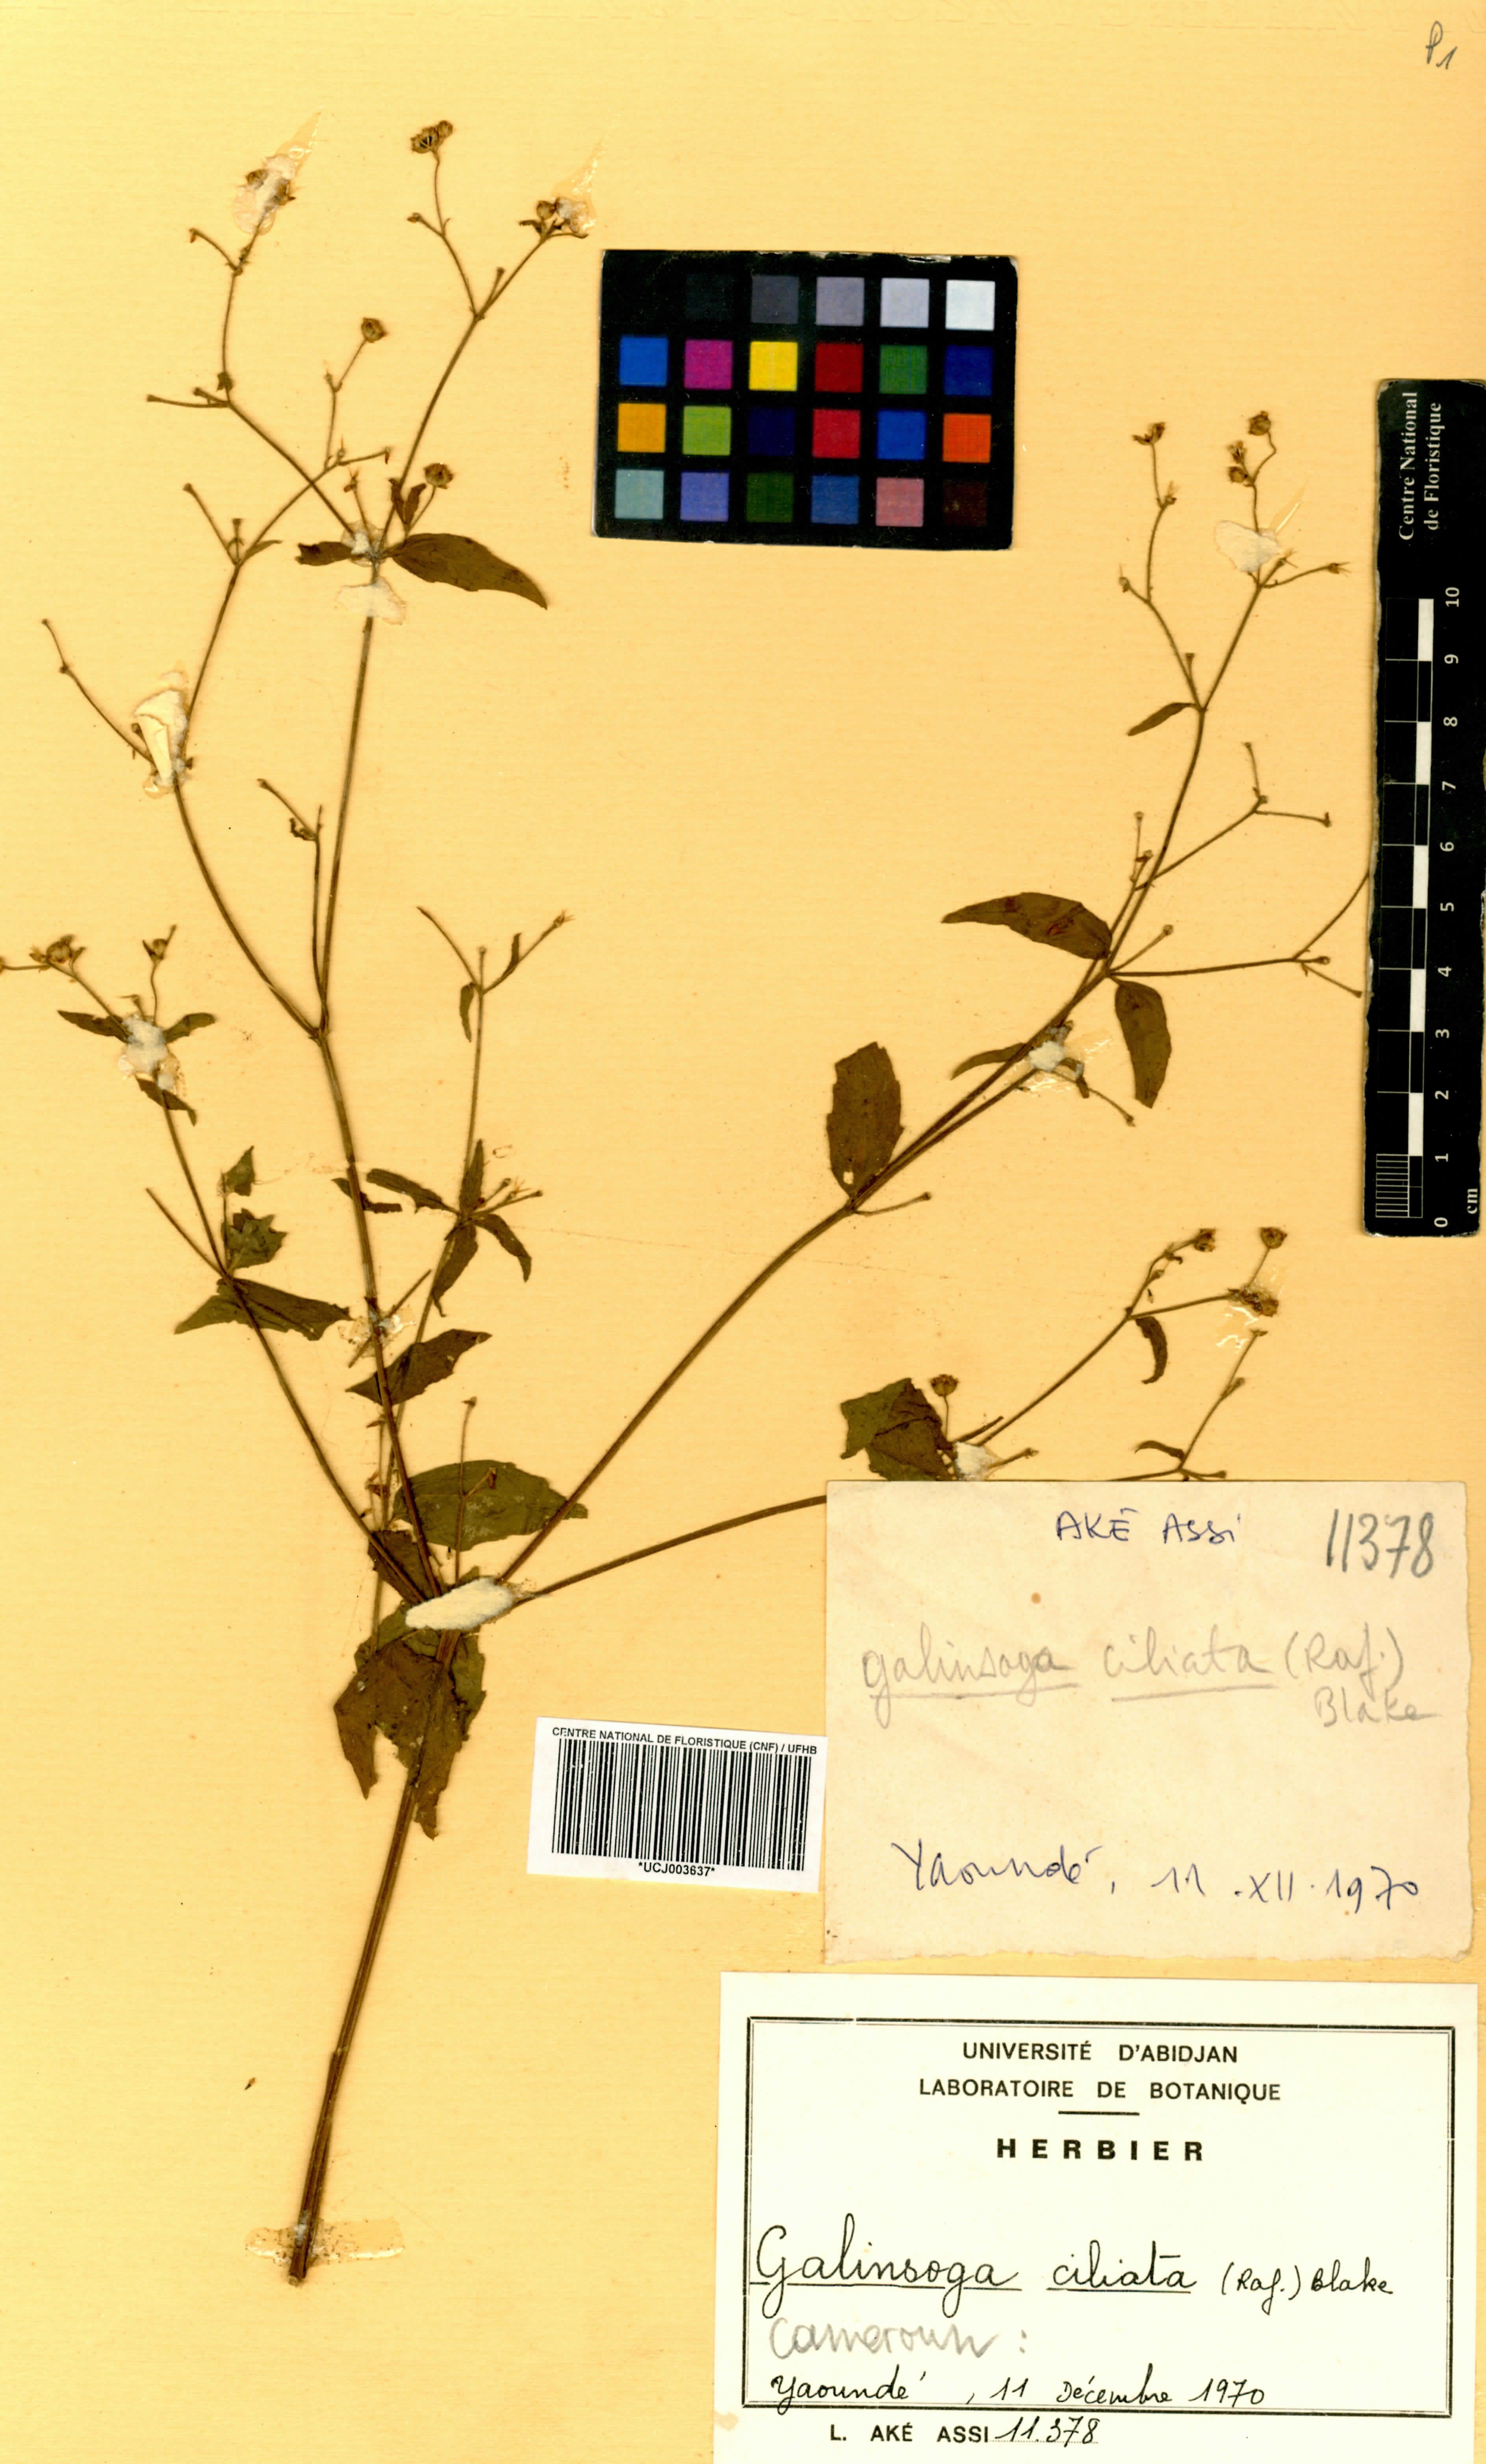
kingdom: Plantae
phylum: Tracheophyta
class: Magnoliopsida
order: Asterales
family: Asteraceae
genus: Galinsoga
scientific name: Galinsoga quadriradiata
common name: Shaggy soldier
